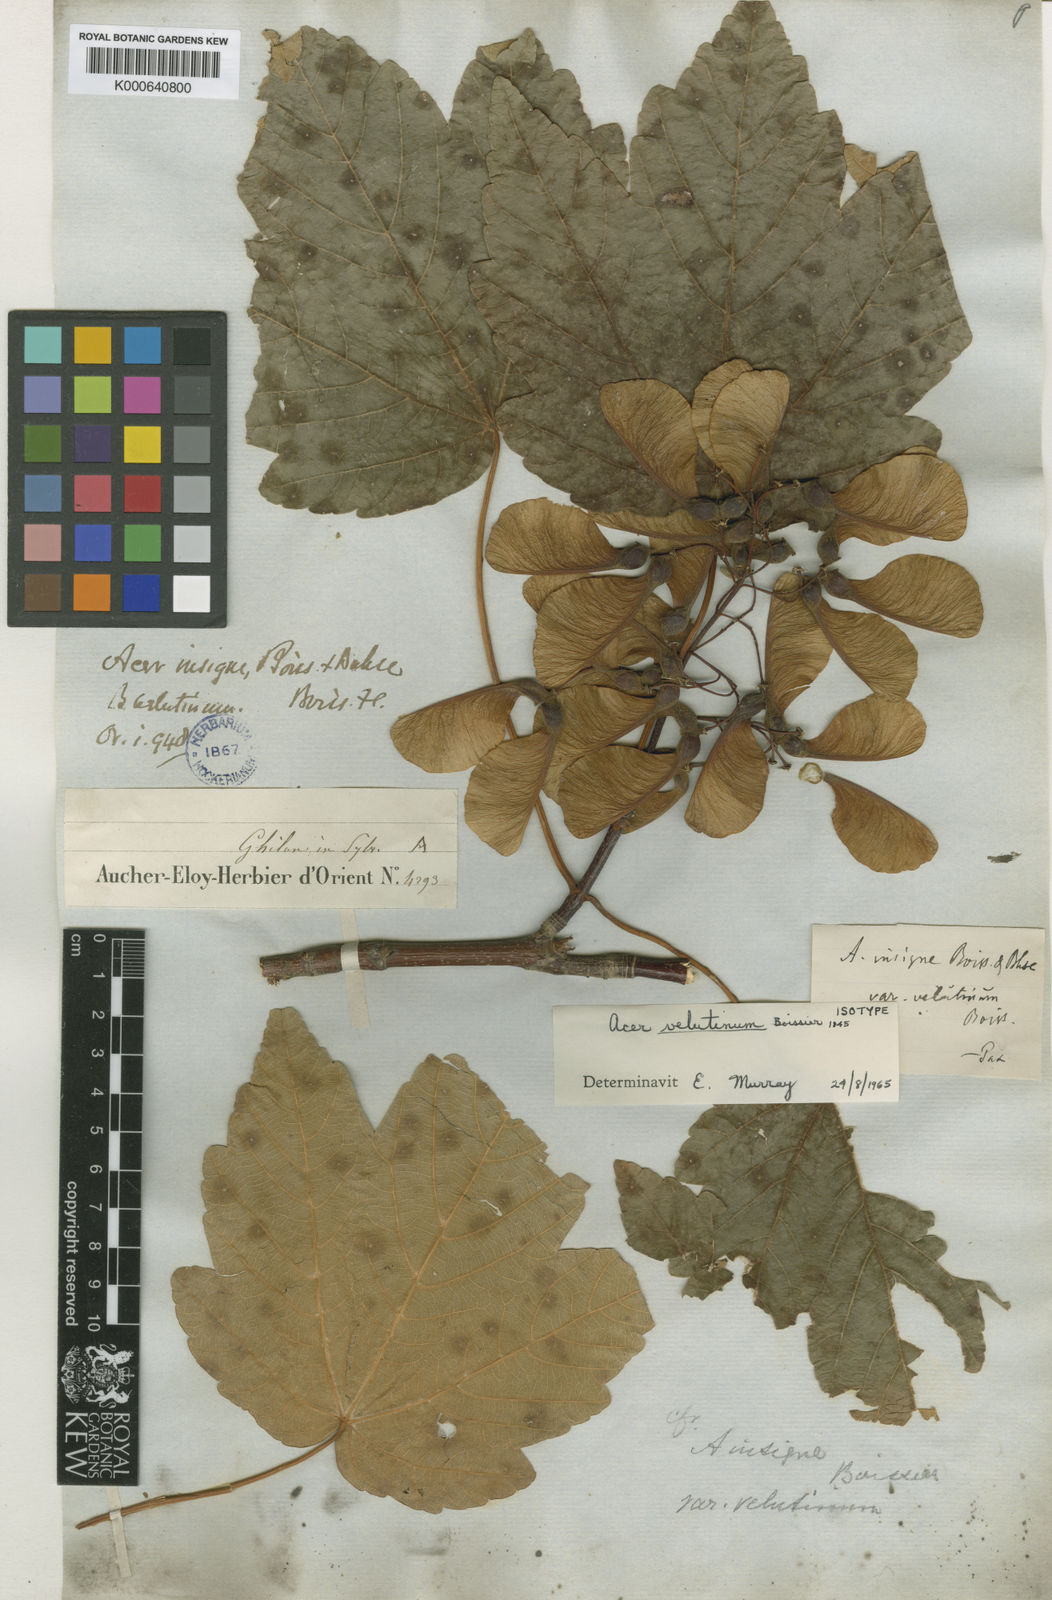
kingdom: Plantae
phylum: Tracheophyta
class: Magnoliopsida
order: Sapindales
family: Sapindaceae
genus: Acer
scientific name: Acer velutinum
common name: Velvet maple
